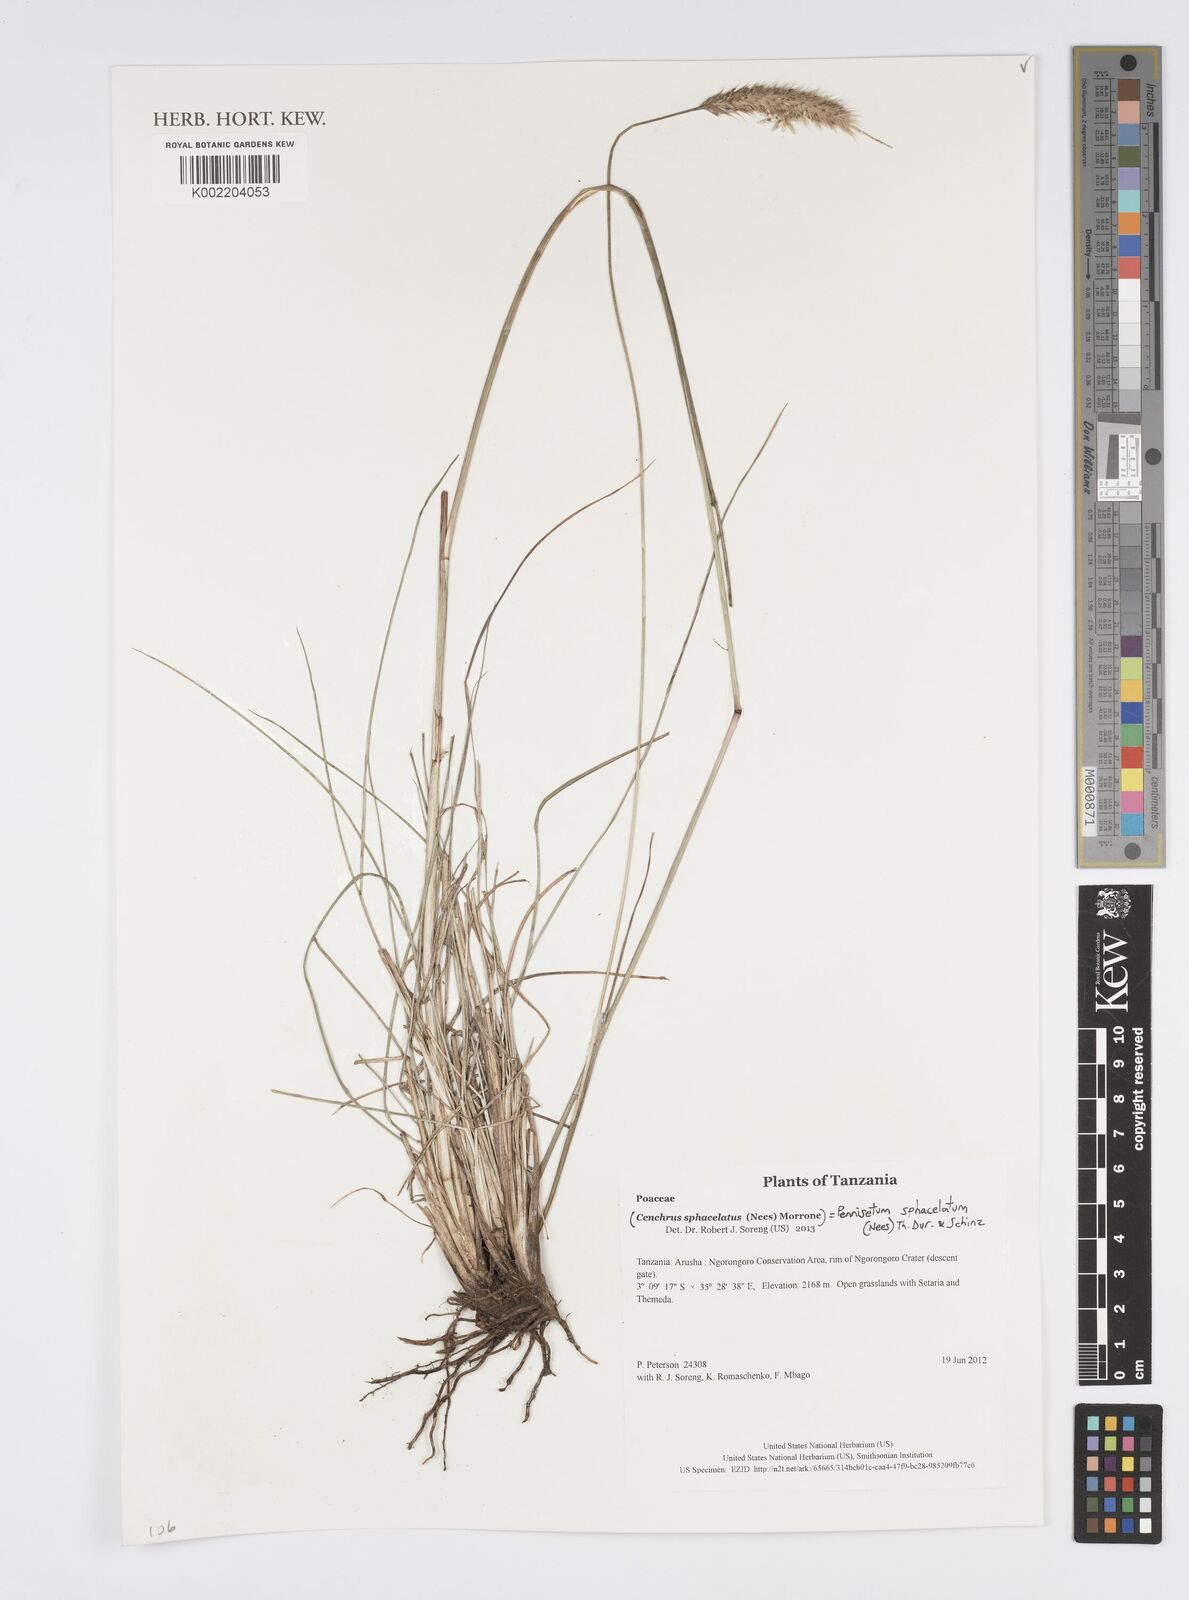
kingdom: Plantae
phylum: Tracheophyta
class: Liliopsida
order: Poales
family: Poaceae
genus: Cenchrus
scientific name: Cenchrus sphacelatus
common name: Bulgras
